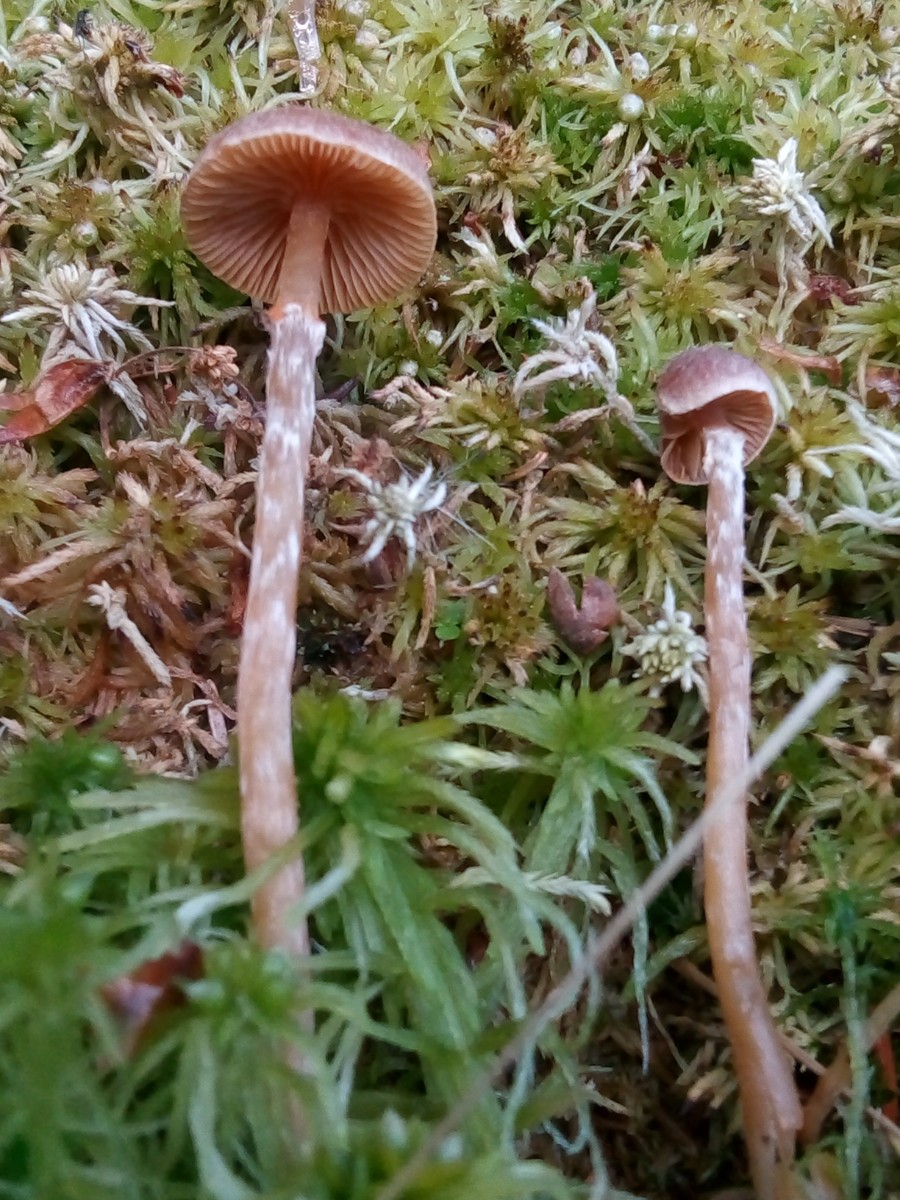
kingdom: Fungi
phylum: Basidiomycota
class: Agaricomycetes
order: Agaricales
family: Hymenogastraceae
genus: Galerina
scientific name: Galerina paludosa
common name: mose-hjelmhat
